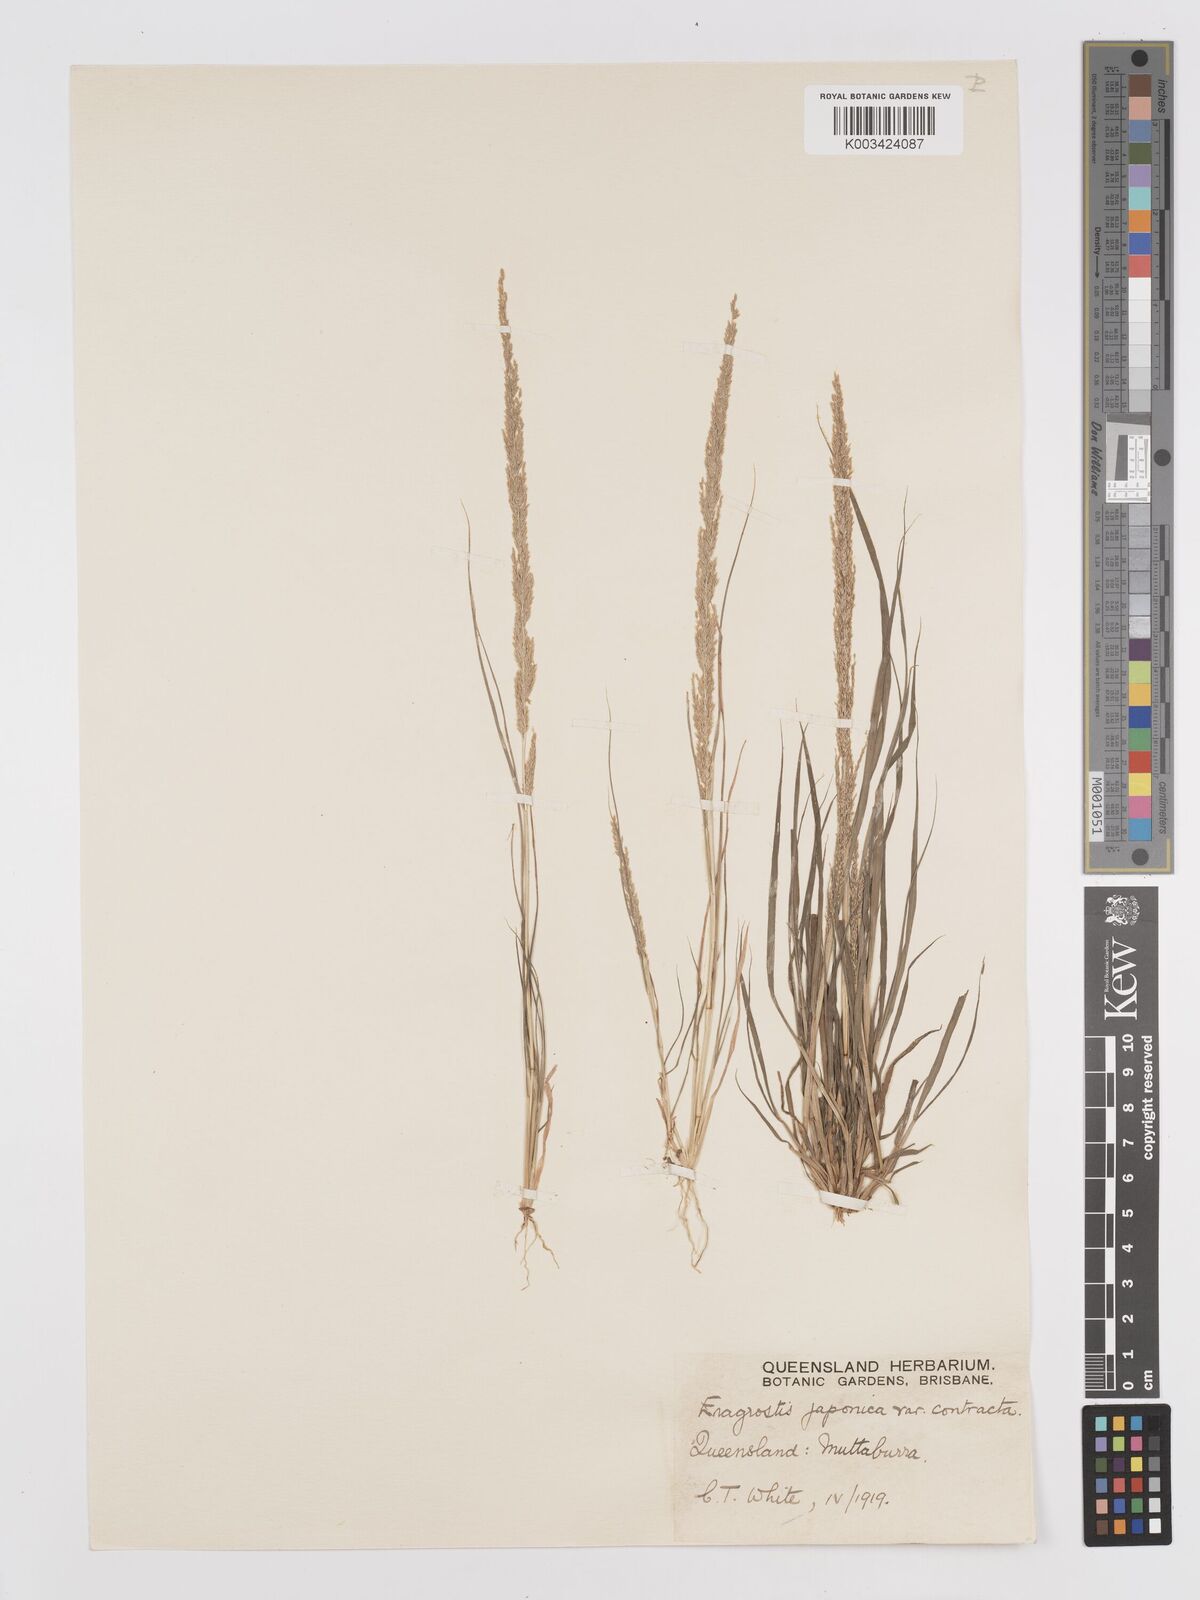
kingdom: Plantae
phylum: Tracheophyta
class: Liliopsida
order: Poales
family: Poaceae
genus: Eragrostis
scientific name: Eragrostis confertiflora
